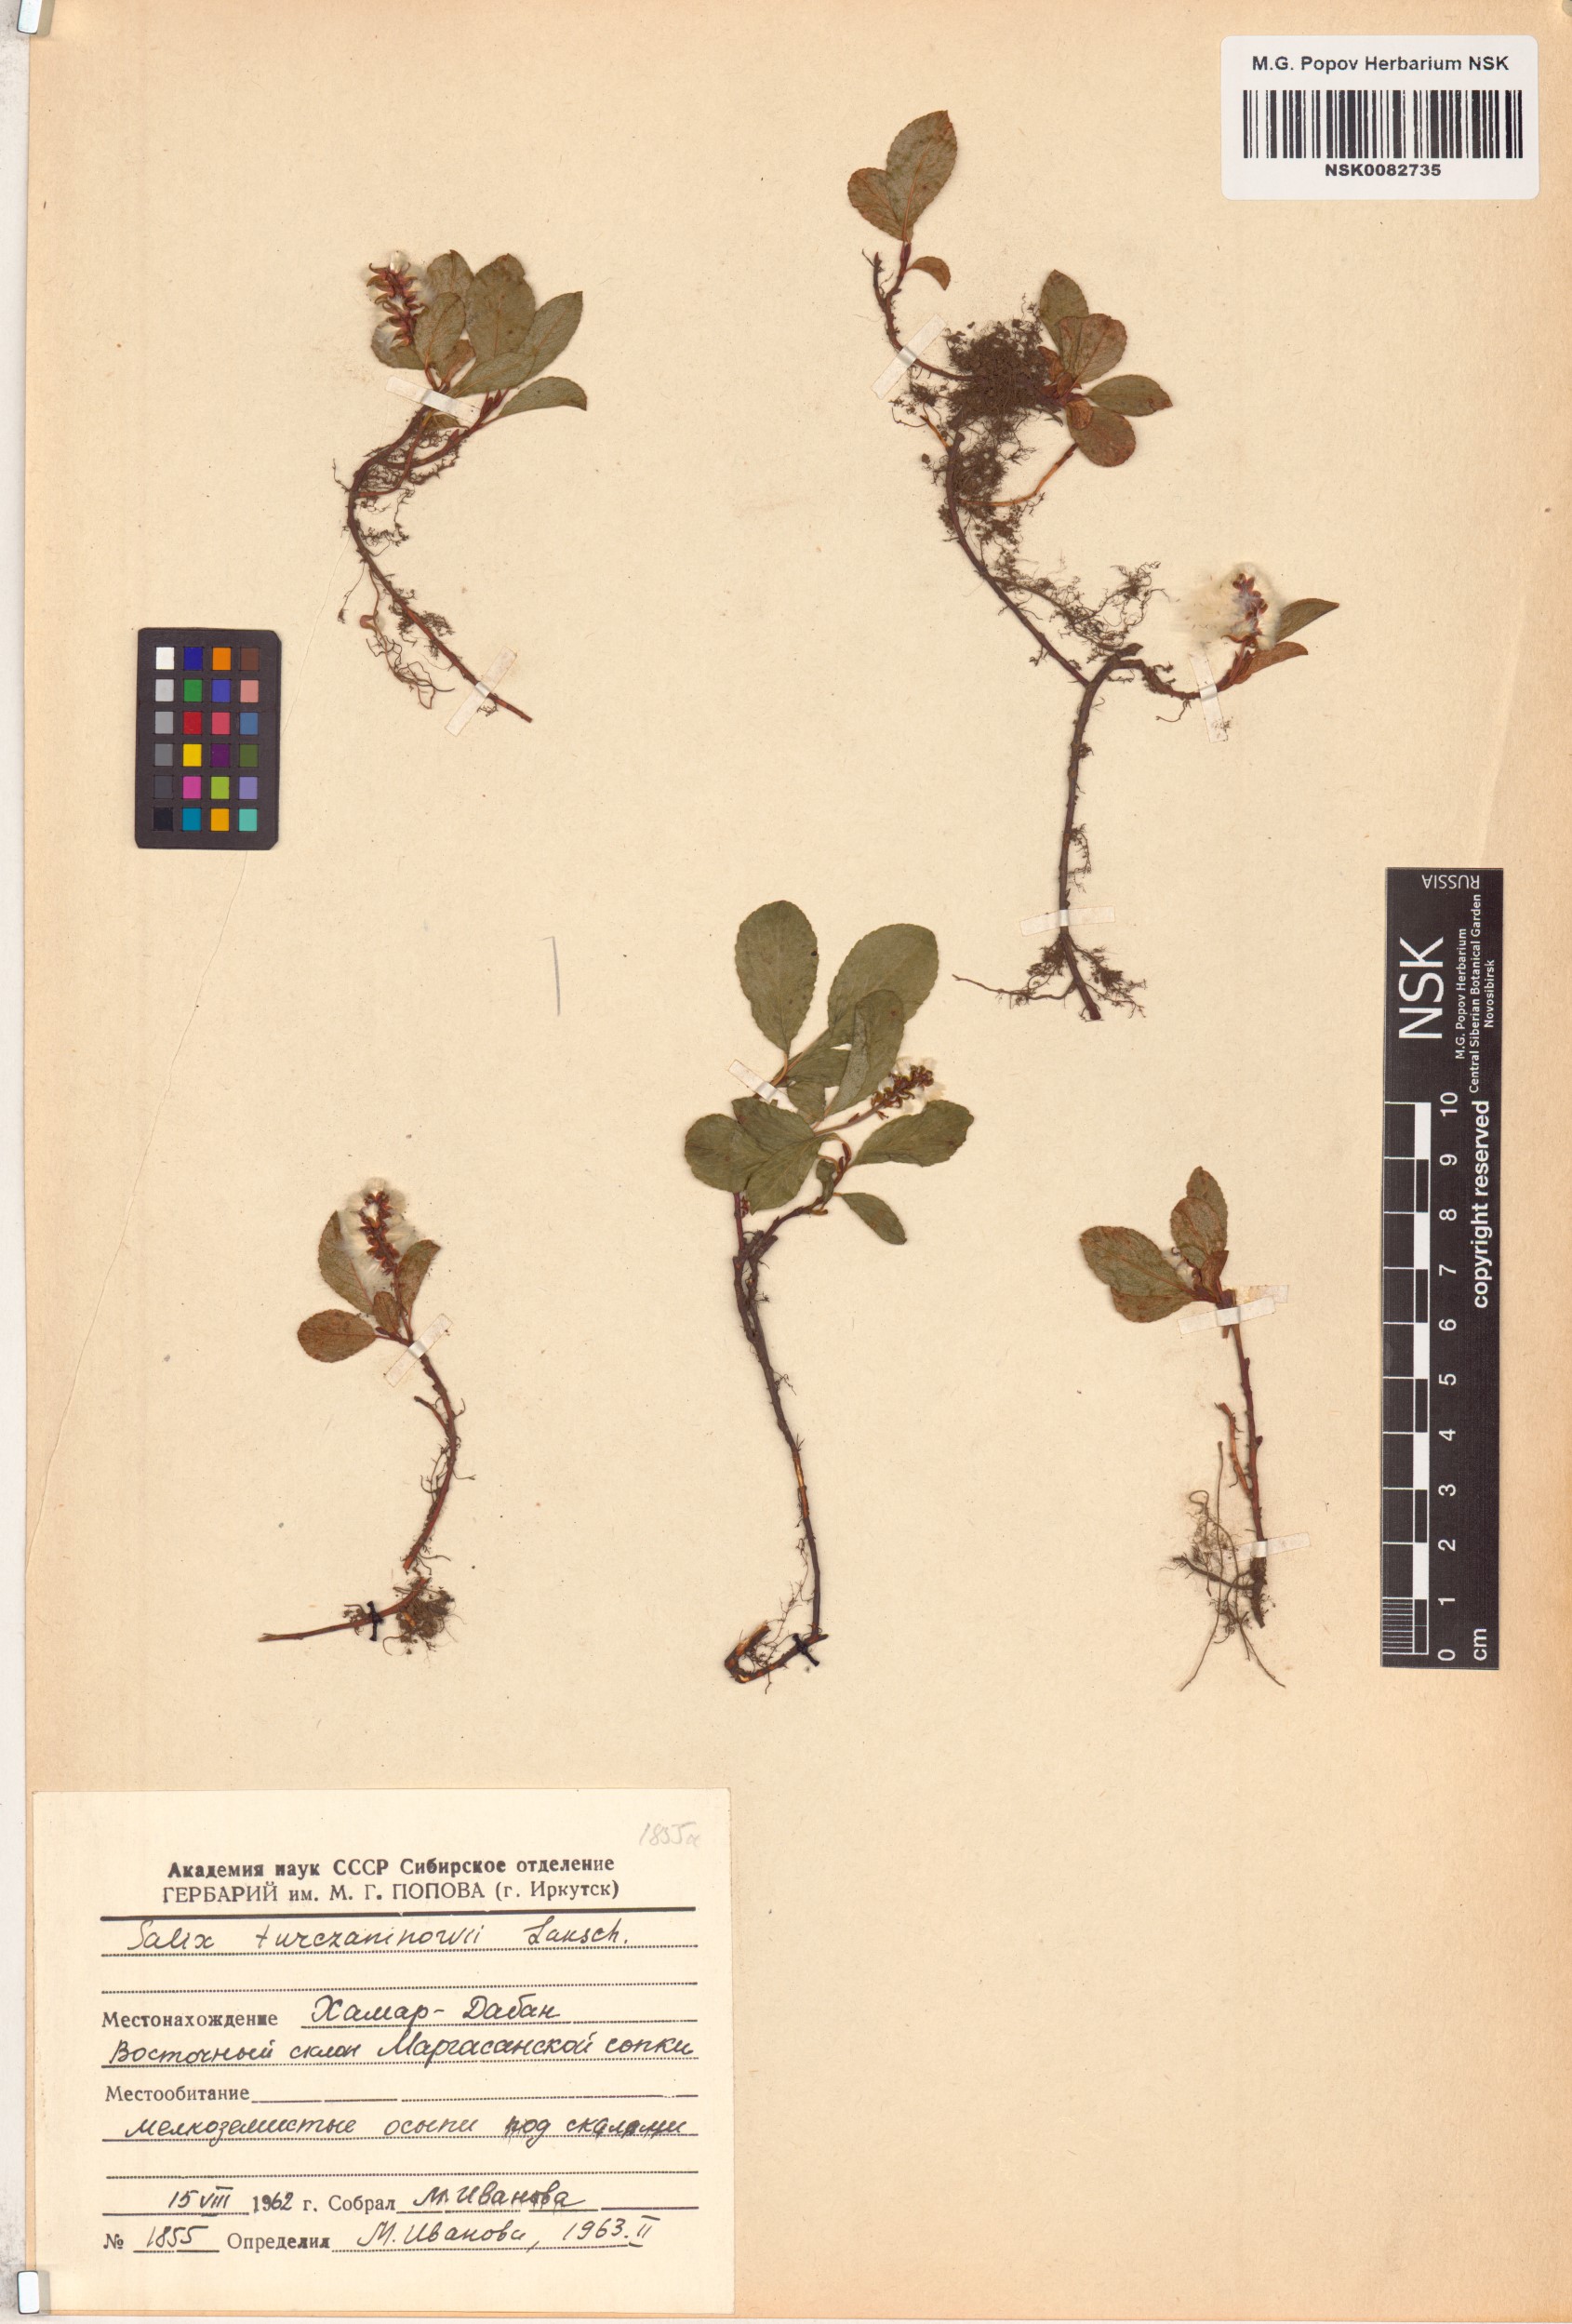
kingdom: Plantae
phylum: Tracheophyta
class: Magnoliopsida
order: Malpighiales
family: Salicaceae
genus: Salix
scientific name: Salix turczaninowii
